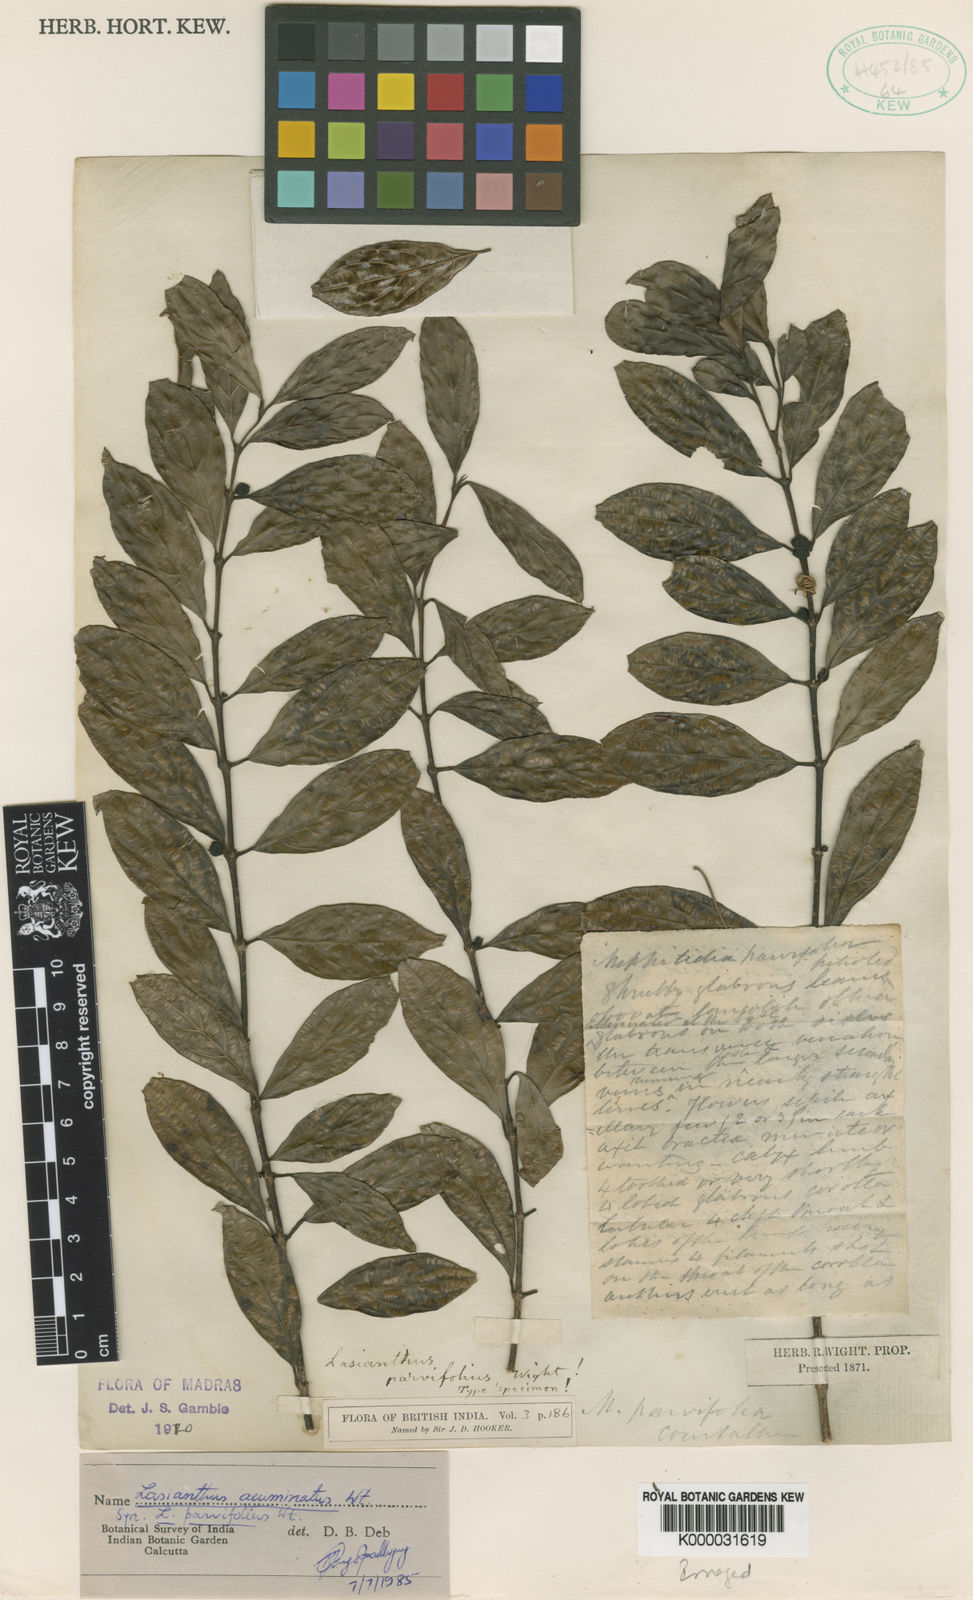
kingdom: Plantae
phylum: Tracheophyta
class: Magnoliopsida
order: Gentianales
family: Rubiaceae
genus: Lasianthus
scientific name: Lasianthus parvifolius
